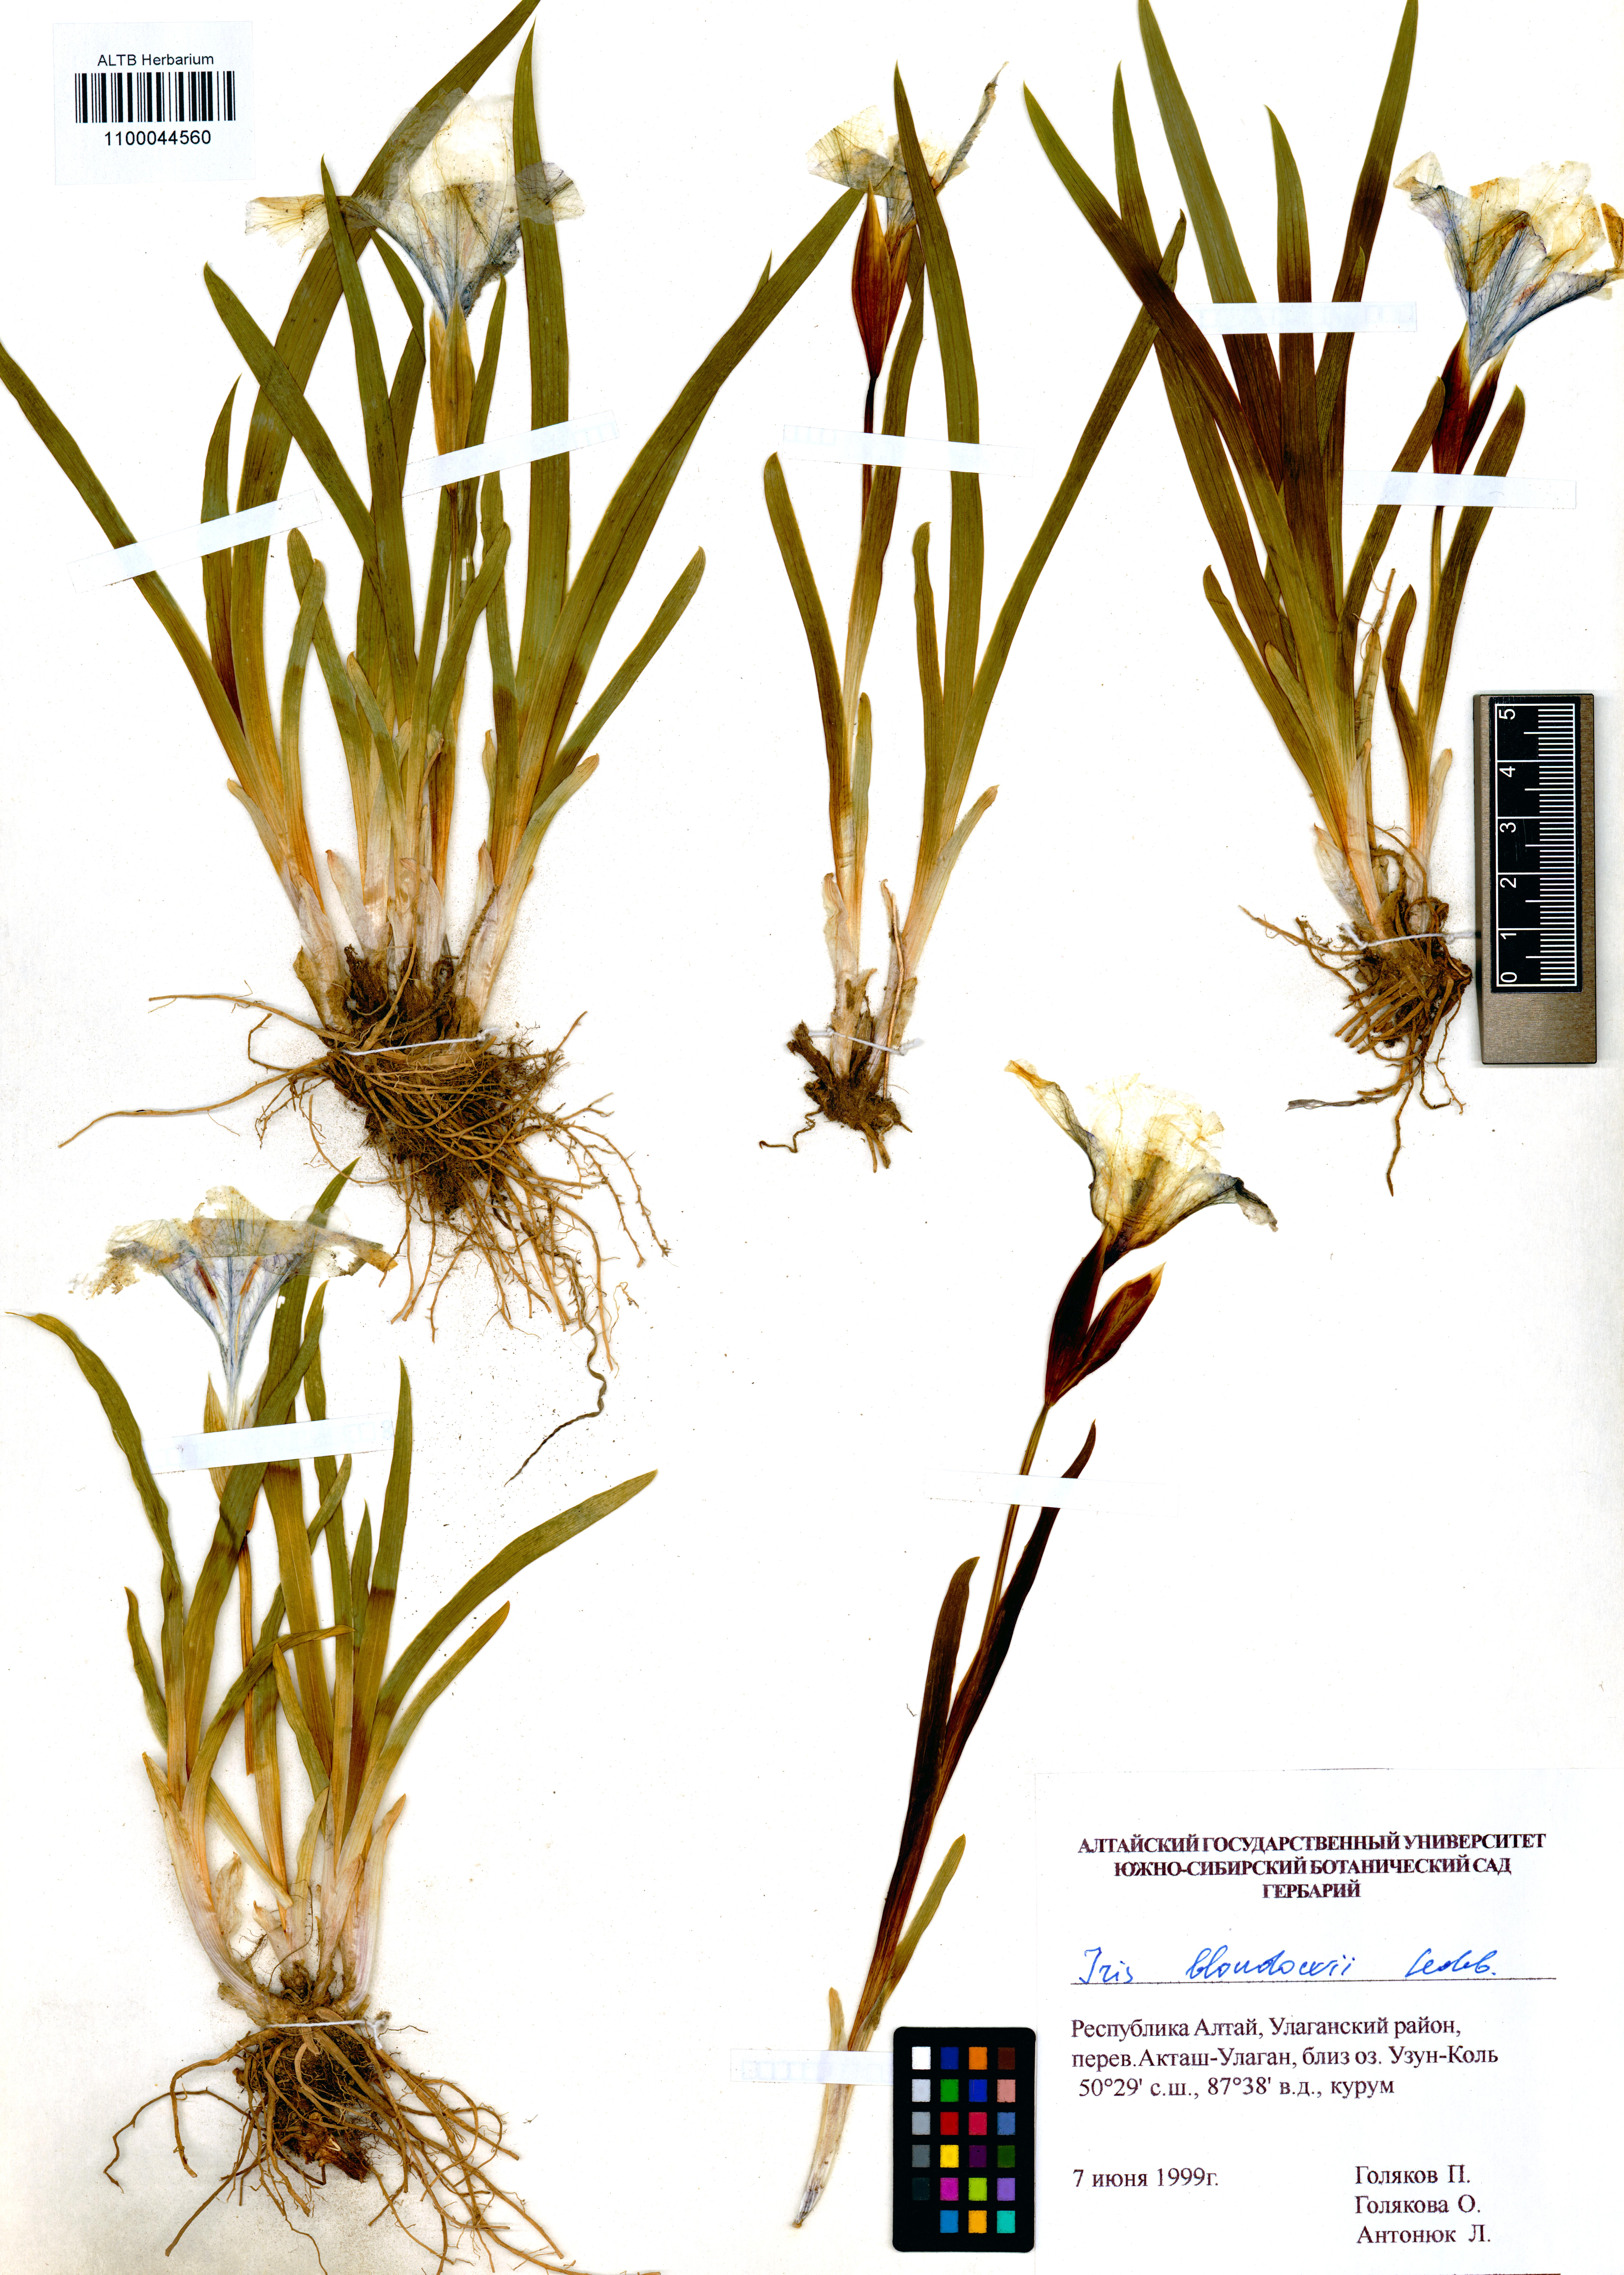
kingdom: Plantae
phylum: Tracheophyta
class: Liliopsida
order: Asparagales
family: Iridaceae
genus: Iris
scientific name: Iris bloudowii
